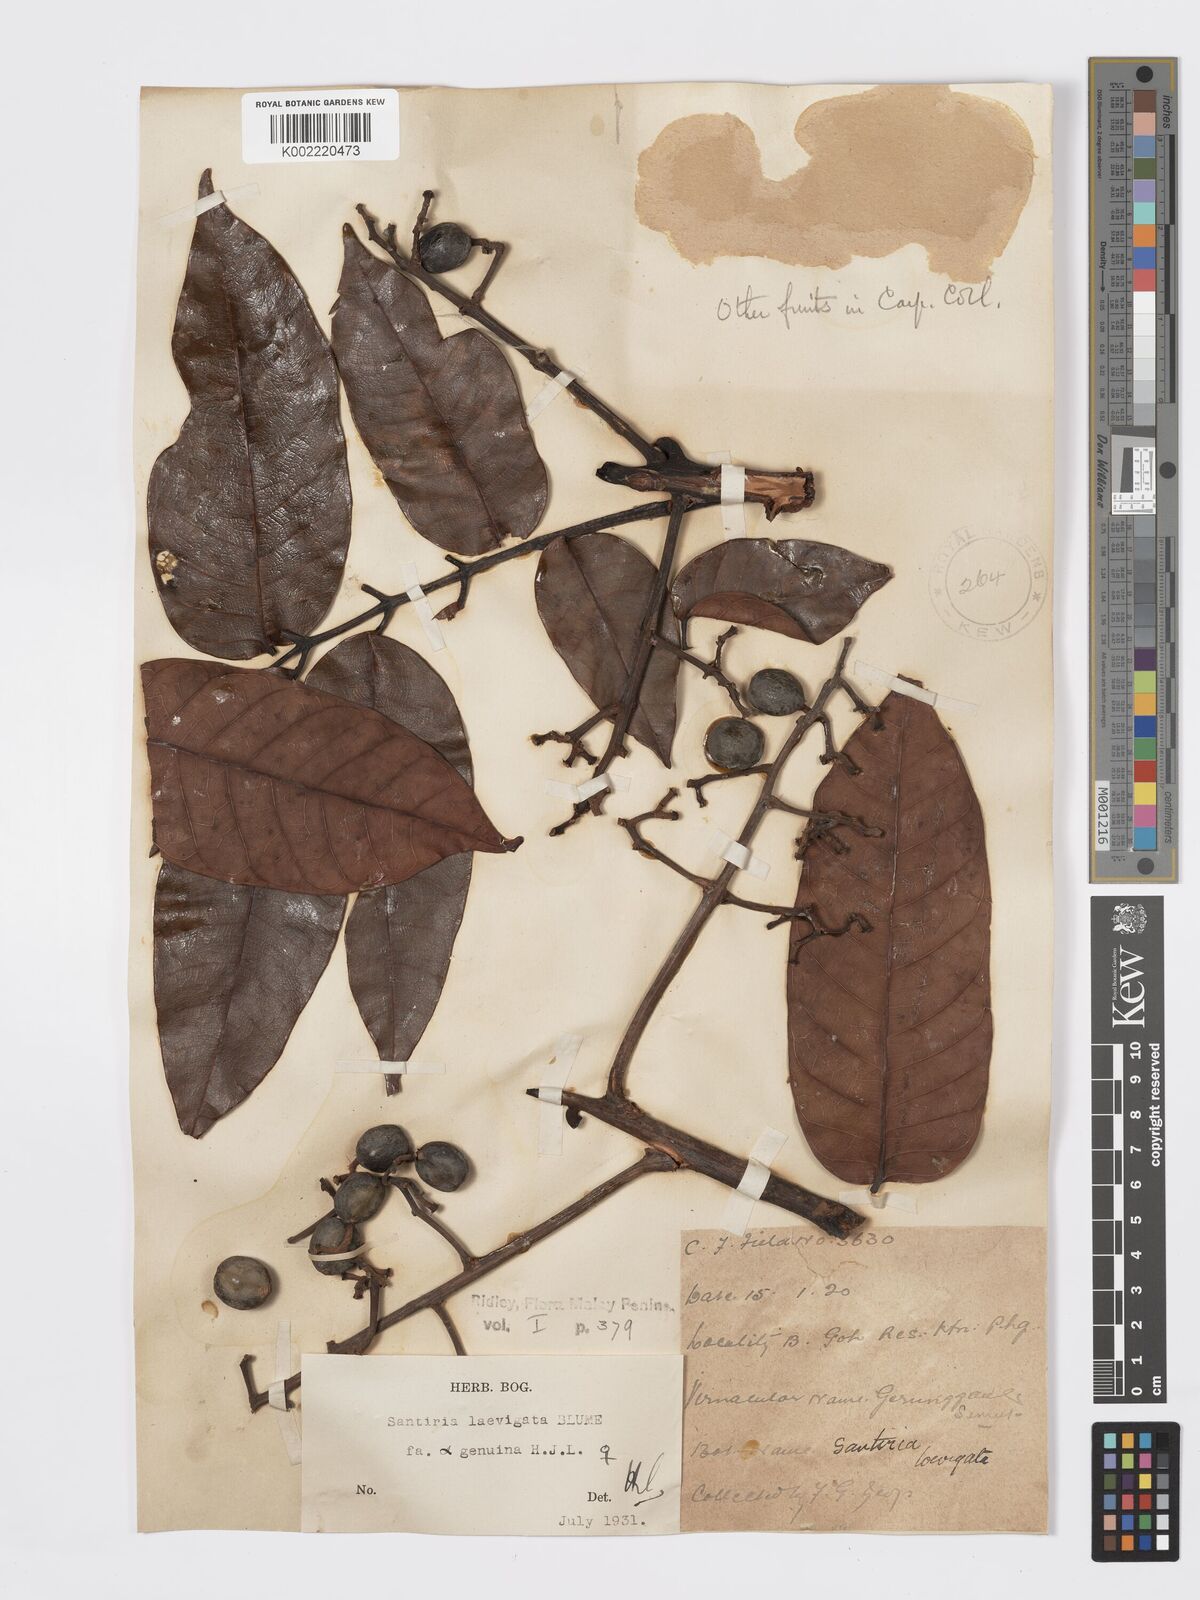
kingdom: Plantae
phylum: Tracheophyta
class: Magnoliopsida
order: Sapindales
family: Burseraceae
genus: Santiria
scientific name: Santiria laevigata
